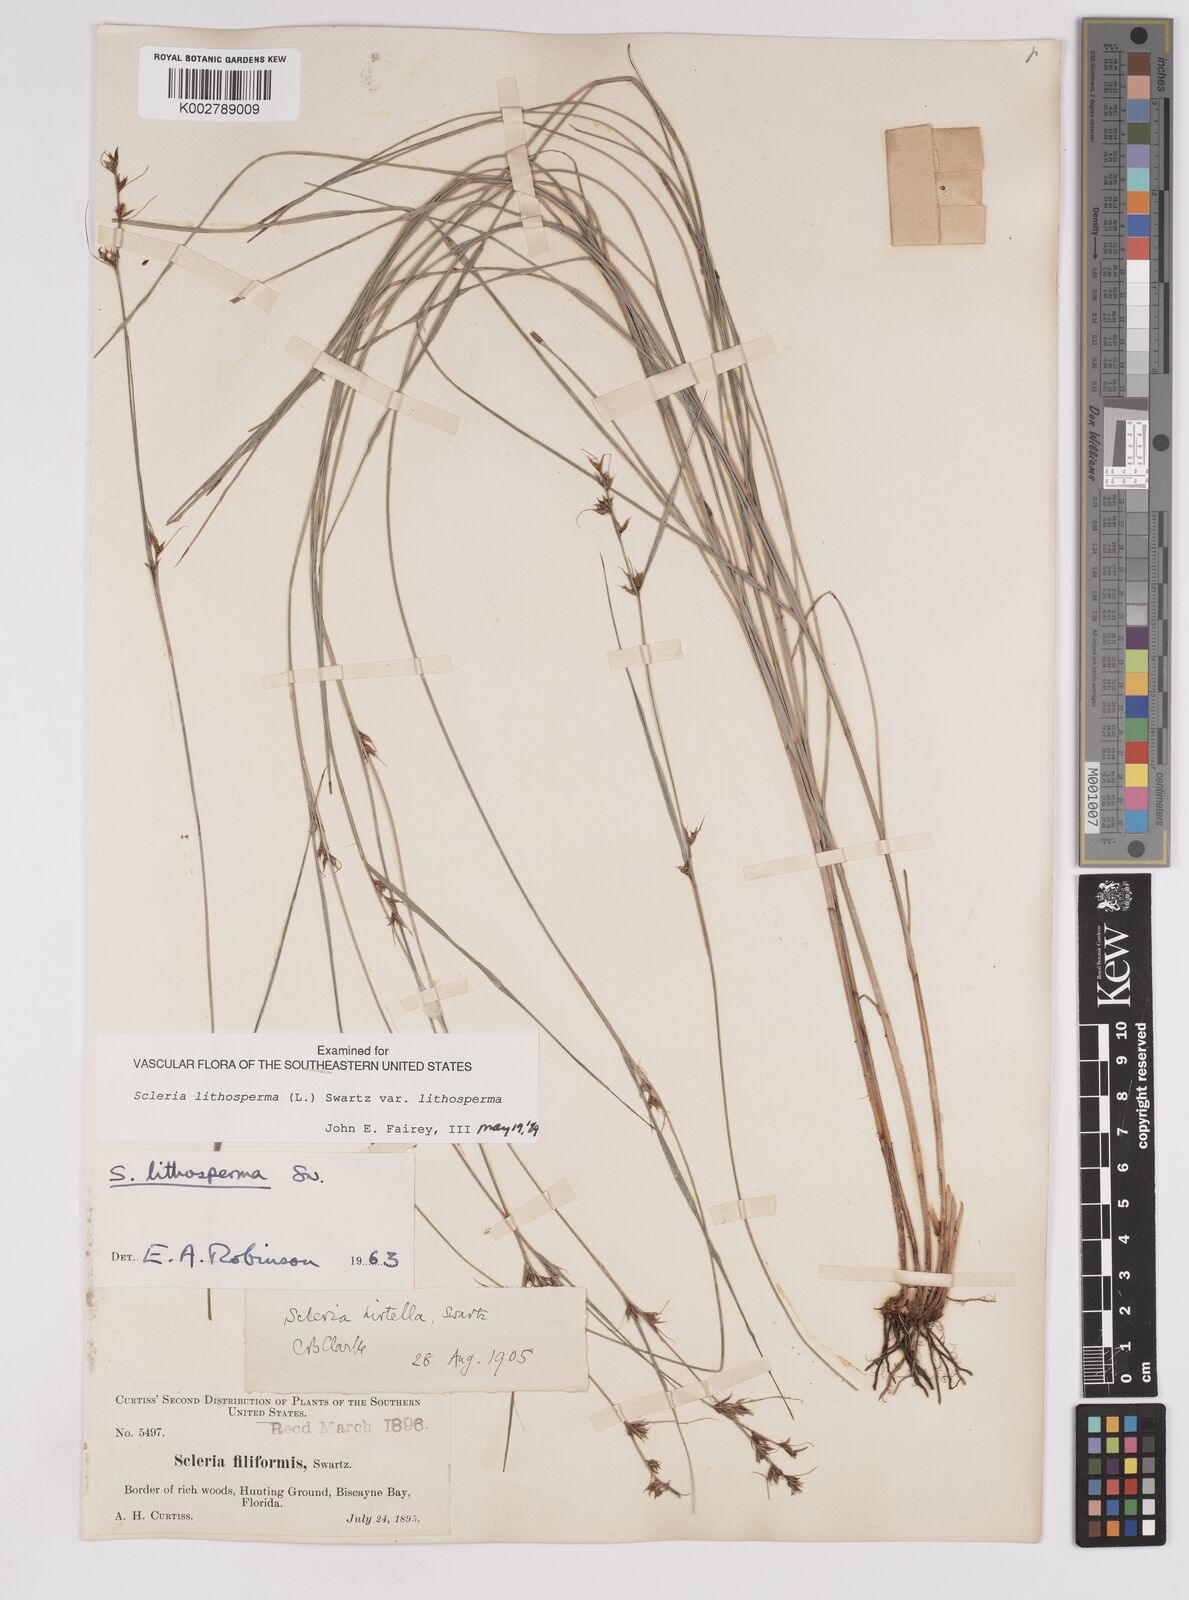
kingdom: Plantae
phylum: Tracheophyta
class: Liliopsida
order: Poales
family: Cyperaceae
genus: Scleria
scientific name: Scleria lithosperma
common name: Florida keys nut-rush
